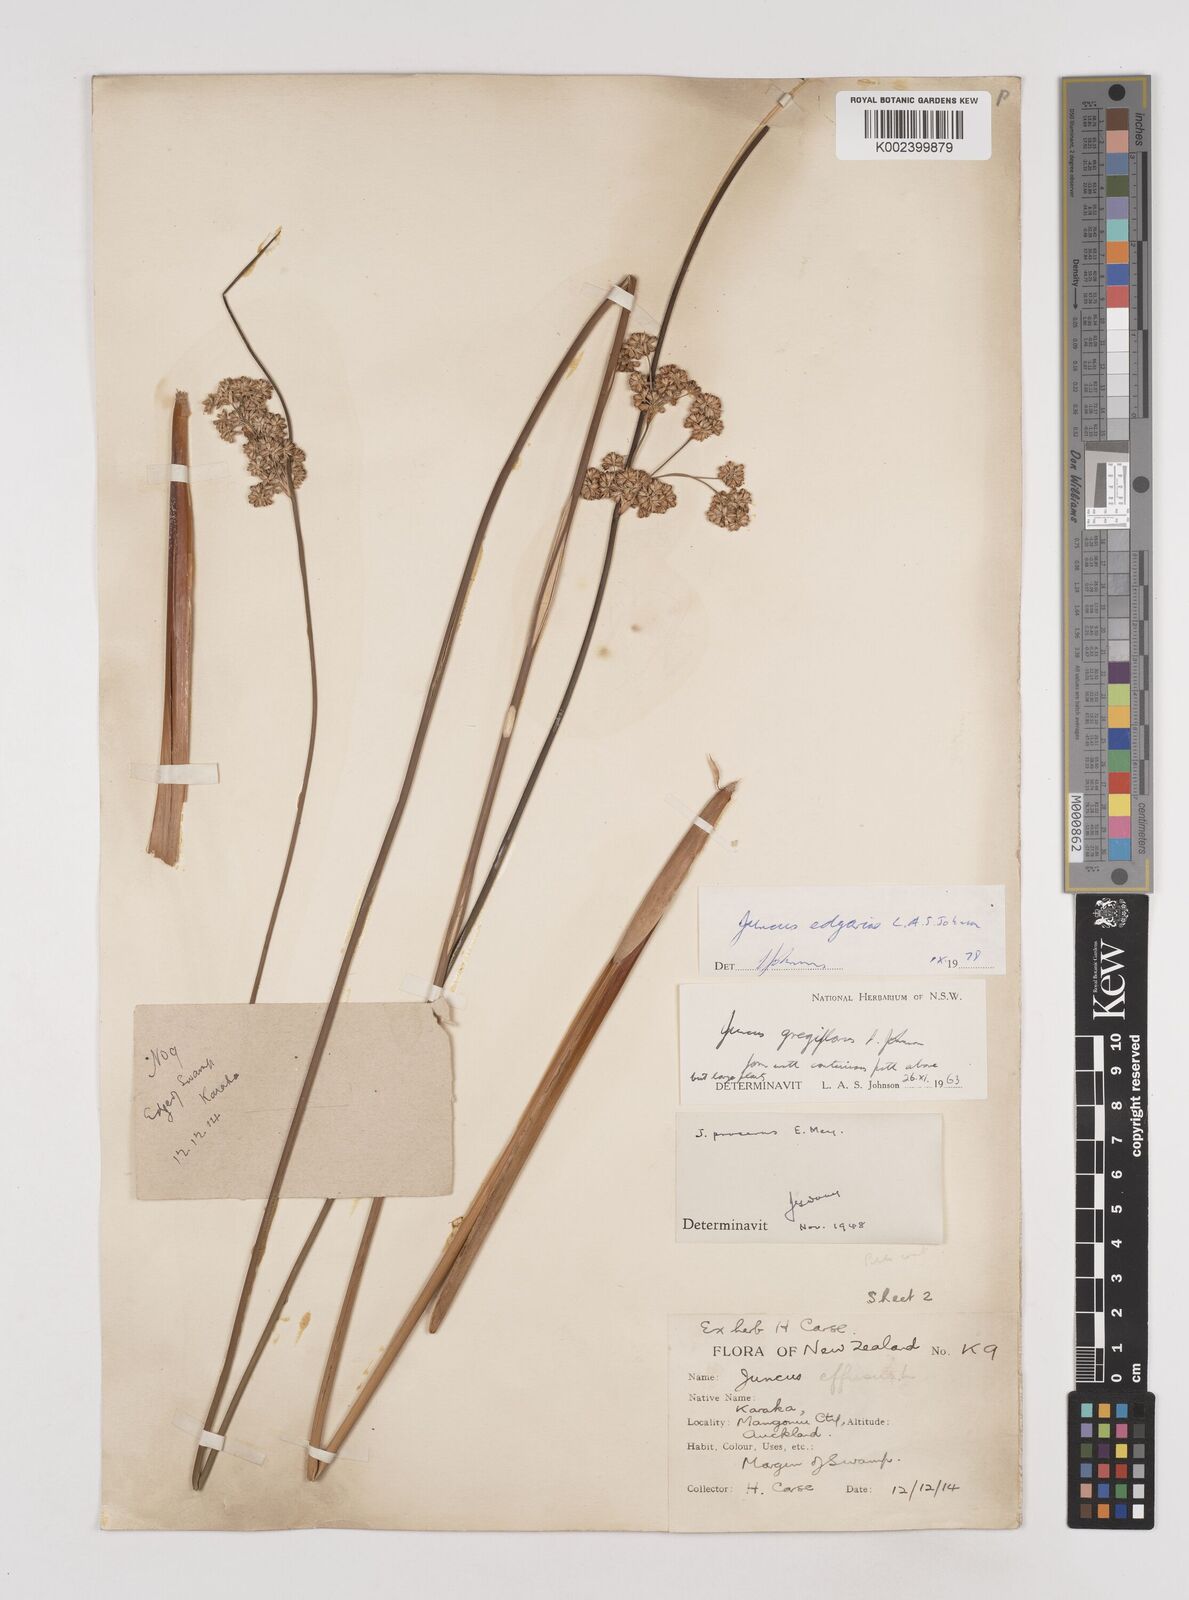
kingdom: Plantae
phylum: Tracheophyta
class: Liliopsida
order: Poales
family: Juncaceae
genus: Juncus
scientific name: Juncus gregiflorus
